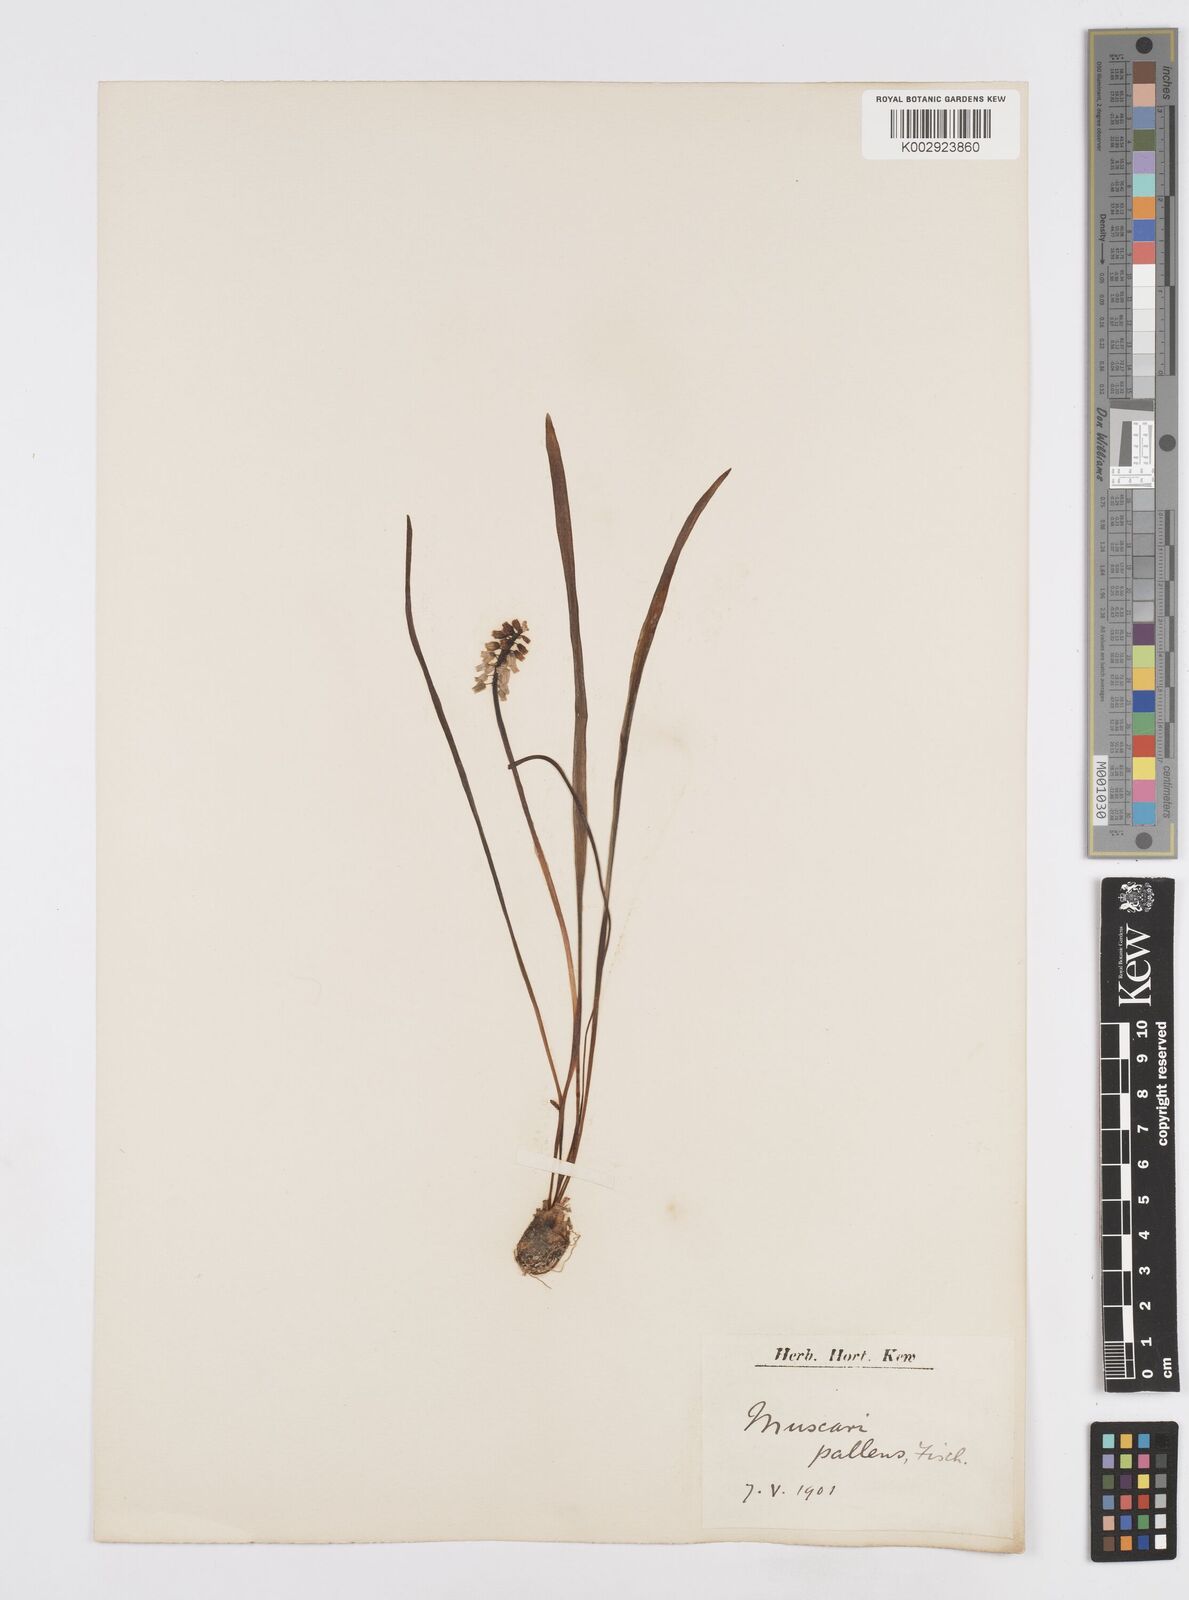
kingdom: Plantae
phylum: Tracheophyta
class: Liliopsida
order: Asparagales
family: Asparagaceae
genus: Muscari
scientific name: Muscari pallens
